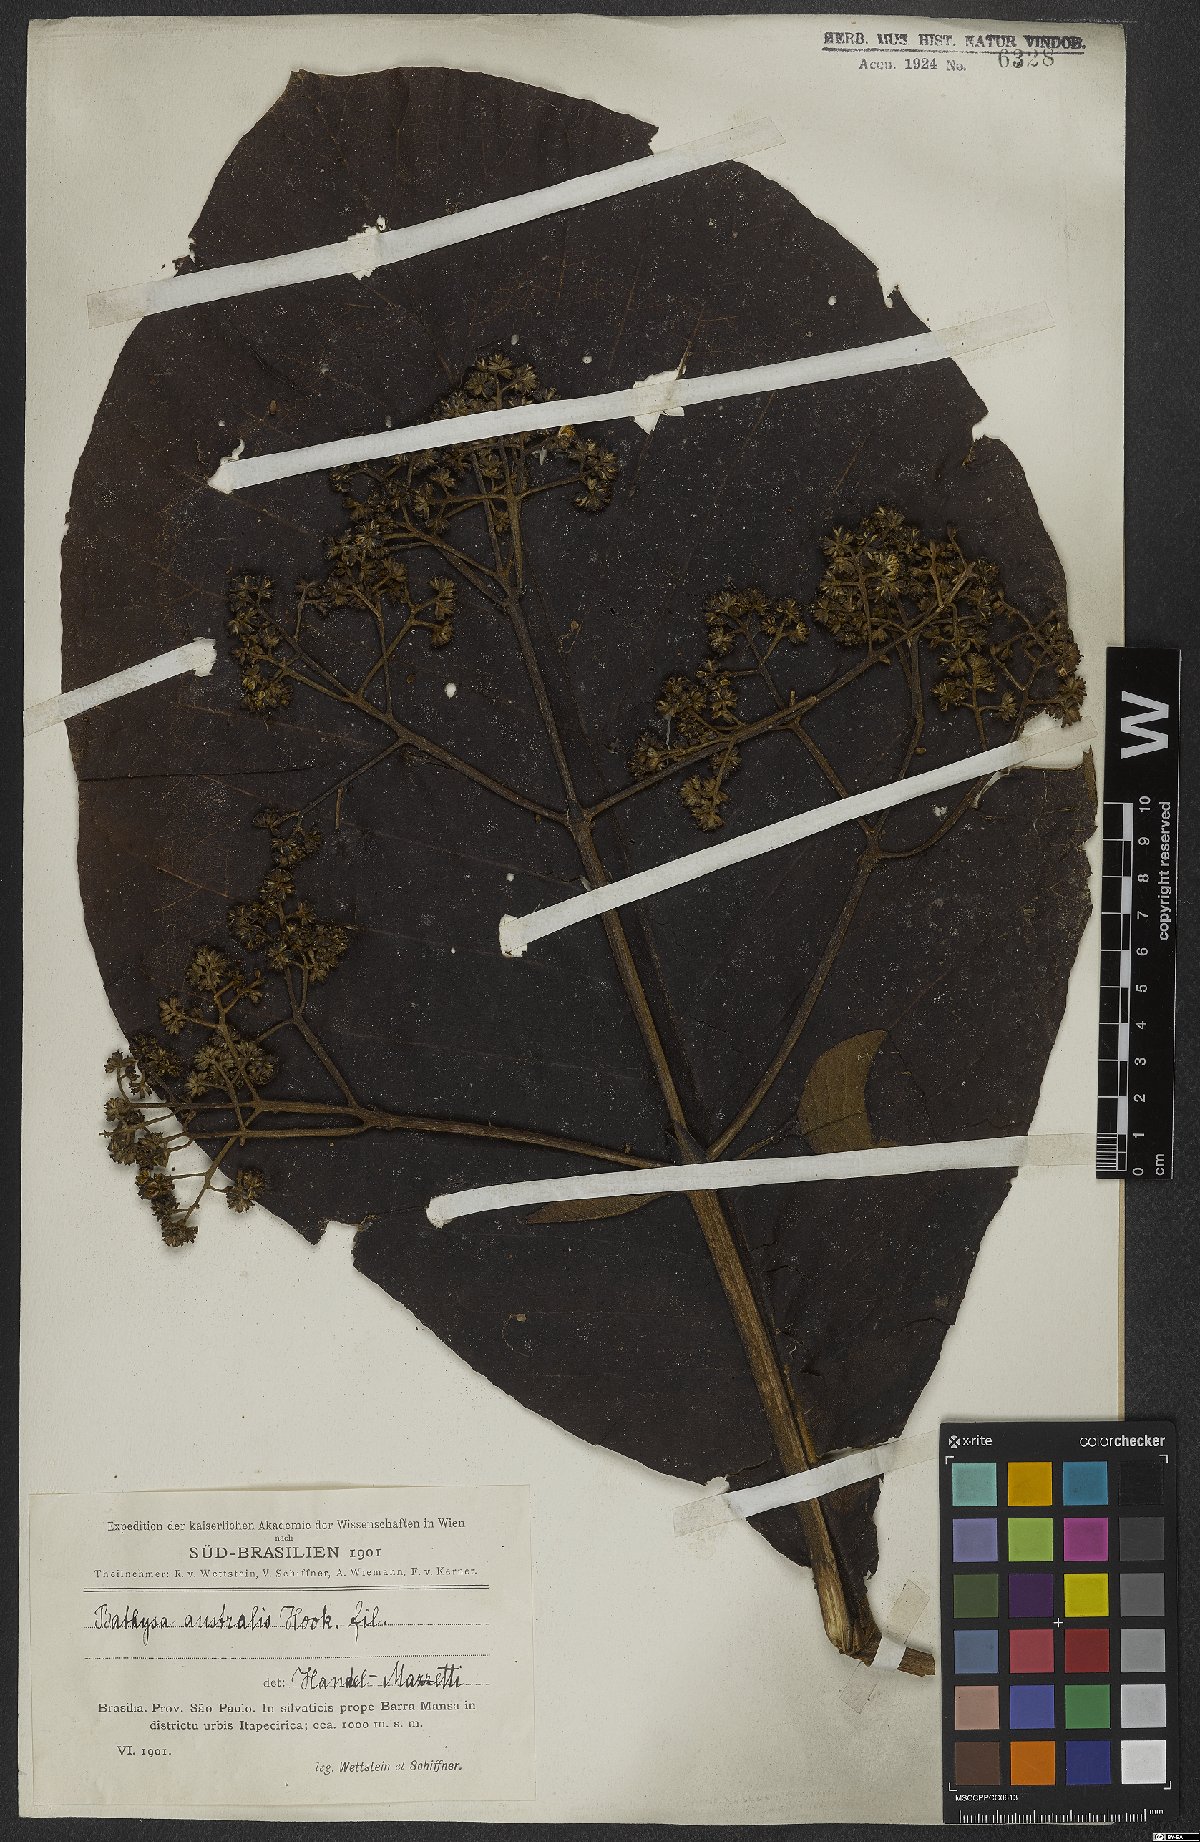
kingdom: Plantae
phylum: Tracheophyta
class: Magnoliopsida
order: Gentianales
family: Rubiaceae
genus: Bathysa
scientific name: Bathysa australis
